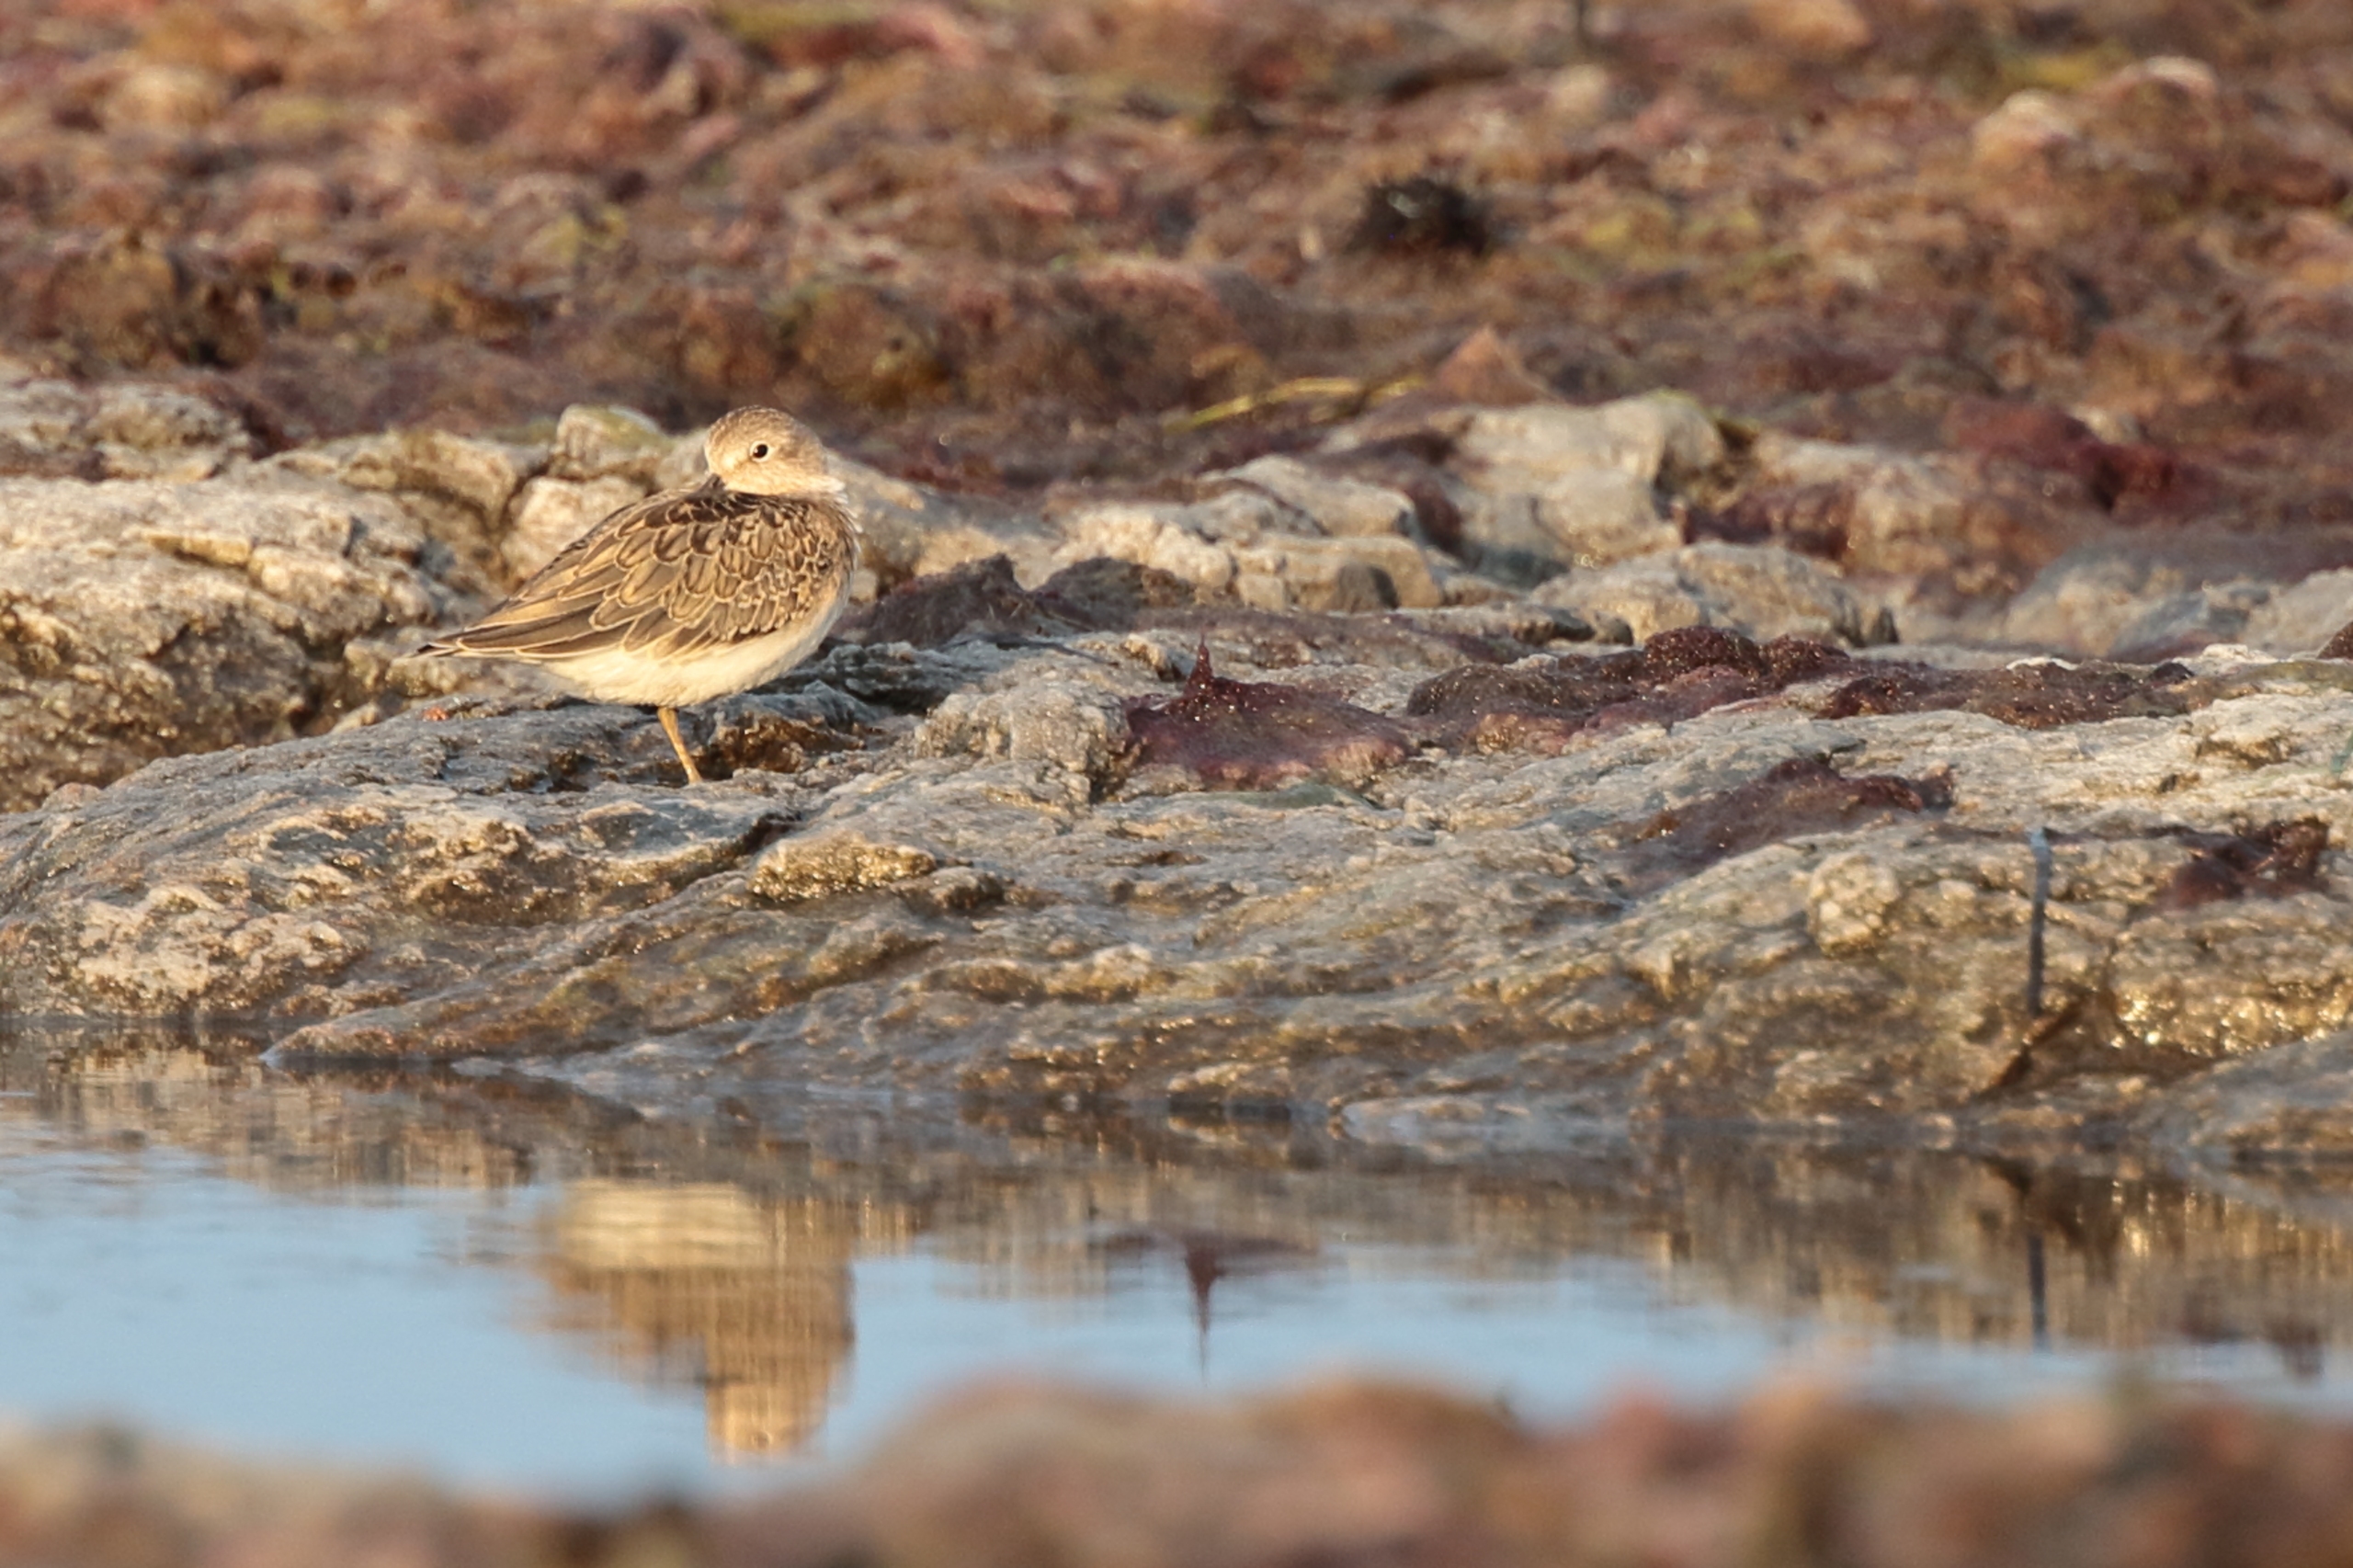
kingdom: Animalia
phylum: Chordata
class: Aves
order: Charadriiformes
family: Scolopacidae
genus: Calidris
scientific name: Calidris temminckii
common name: Temmincksryle
